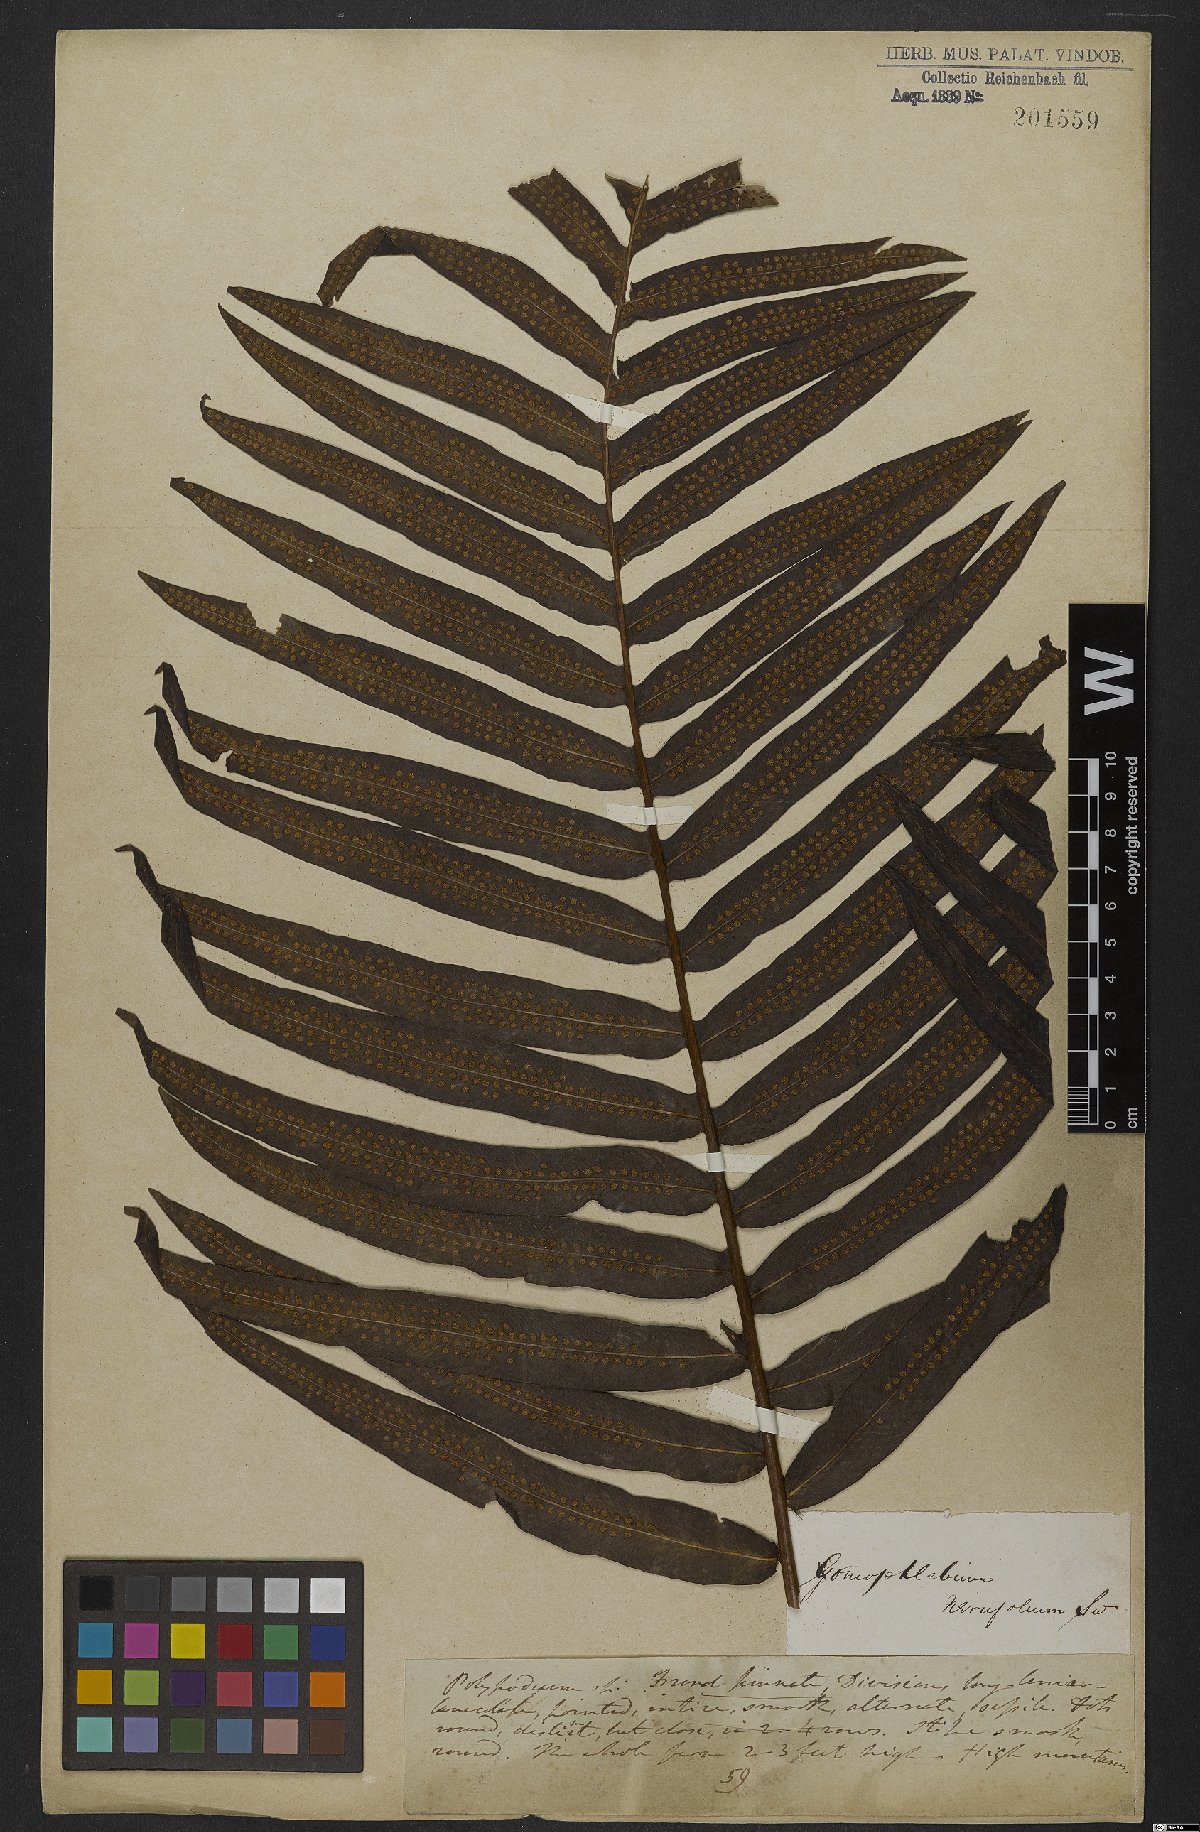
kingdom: Plantae
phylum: Tracheophyta
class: Polypodiopsida
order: Polypodiales
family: Polypodiaceae
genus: Serpocaulon
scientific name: Serpocaulon triseriale
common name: Angle-vein fern
